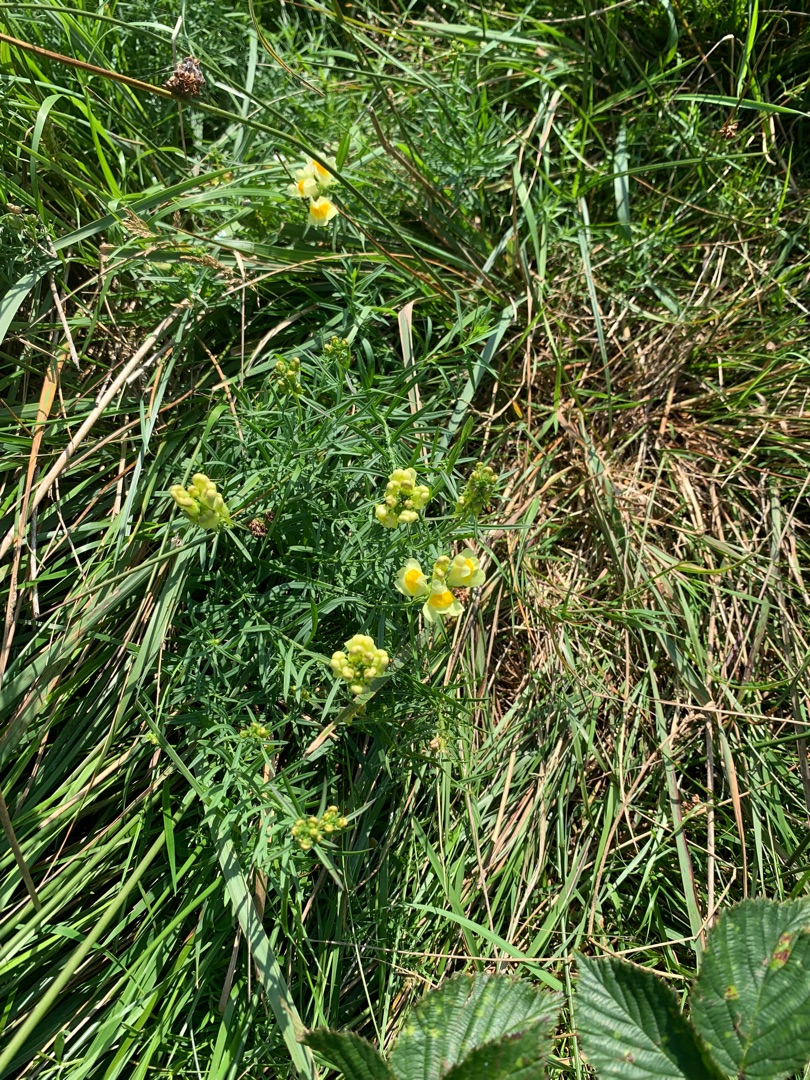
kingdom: Plantae
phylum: Tracheophyta
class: Magnoliopsida
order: Lamiales
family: Plantaginaceae
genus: Linaria
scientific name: Linaria vulgaris
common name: Almindelig torskemund
